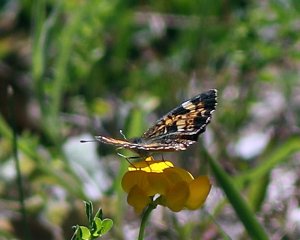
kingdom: Animalia
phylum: Arthropoda
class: Insecta
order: Lepidoptera
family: Nymphalidae
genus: Phyciodes
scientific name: Phyciodes tharos
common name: Pearl Crescent
